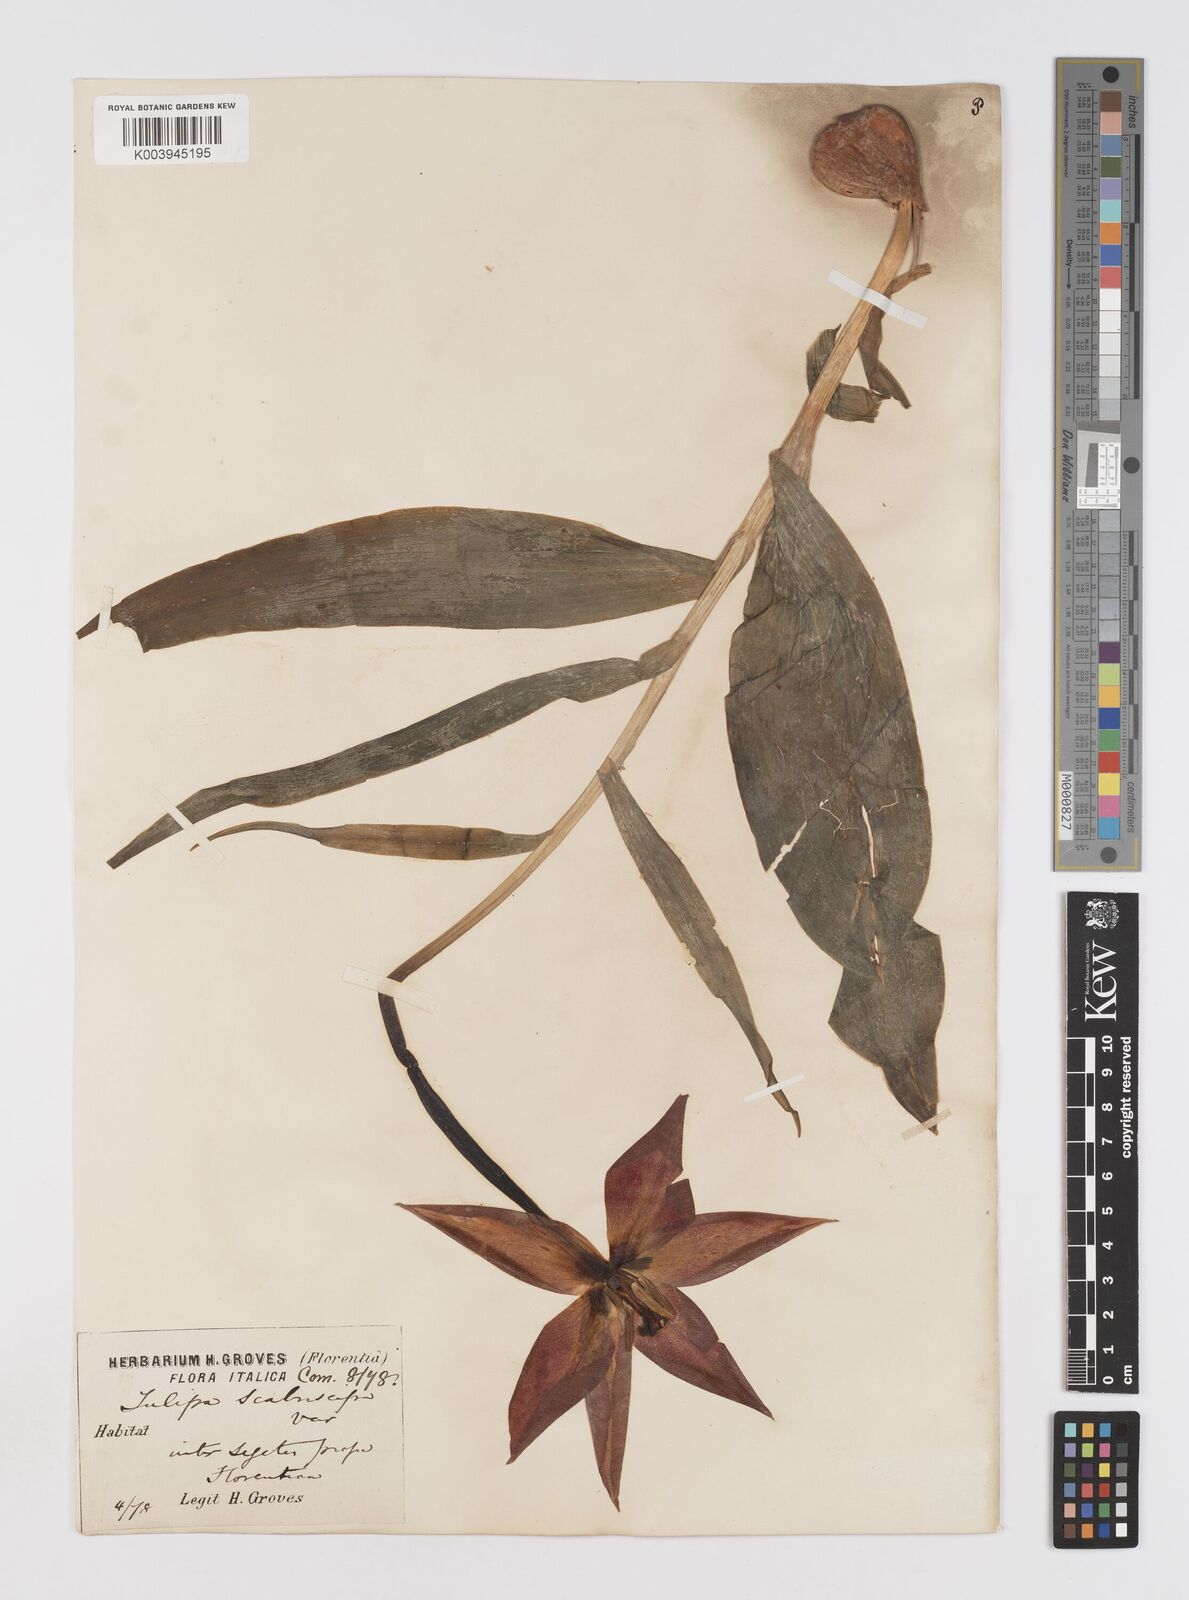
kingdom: Plantae
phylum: Tracheophyta
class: Liliopsida
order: Liliales
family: Liliaceae
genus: Tulipa
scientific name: Tulipa gesneriana
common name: Garden tulip
